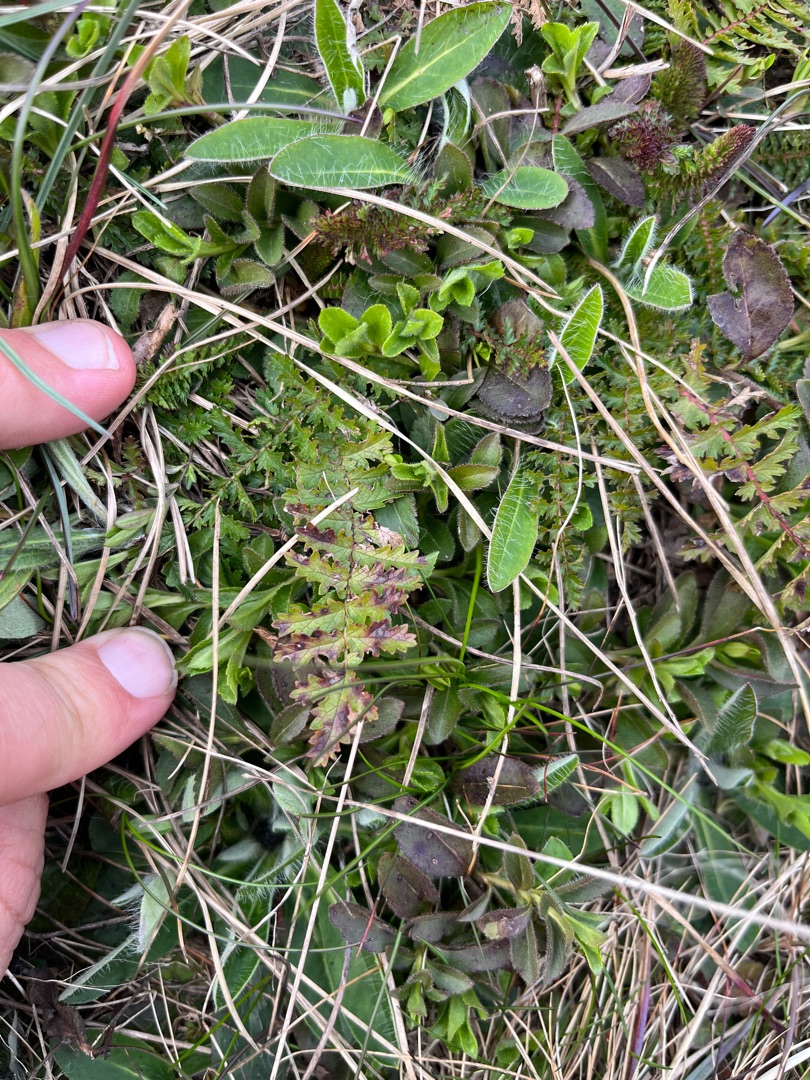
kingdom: Plantae
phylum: Tracheophyta
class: Magnoliopsida
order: Rosales
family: Rosaceae
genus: Filipendula
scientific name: Filipendula vulgaris
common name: Knoldet mjødurt
